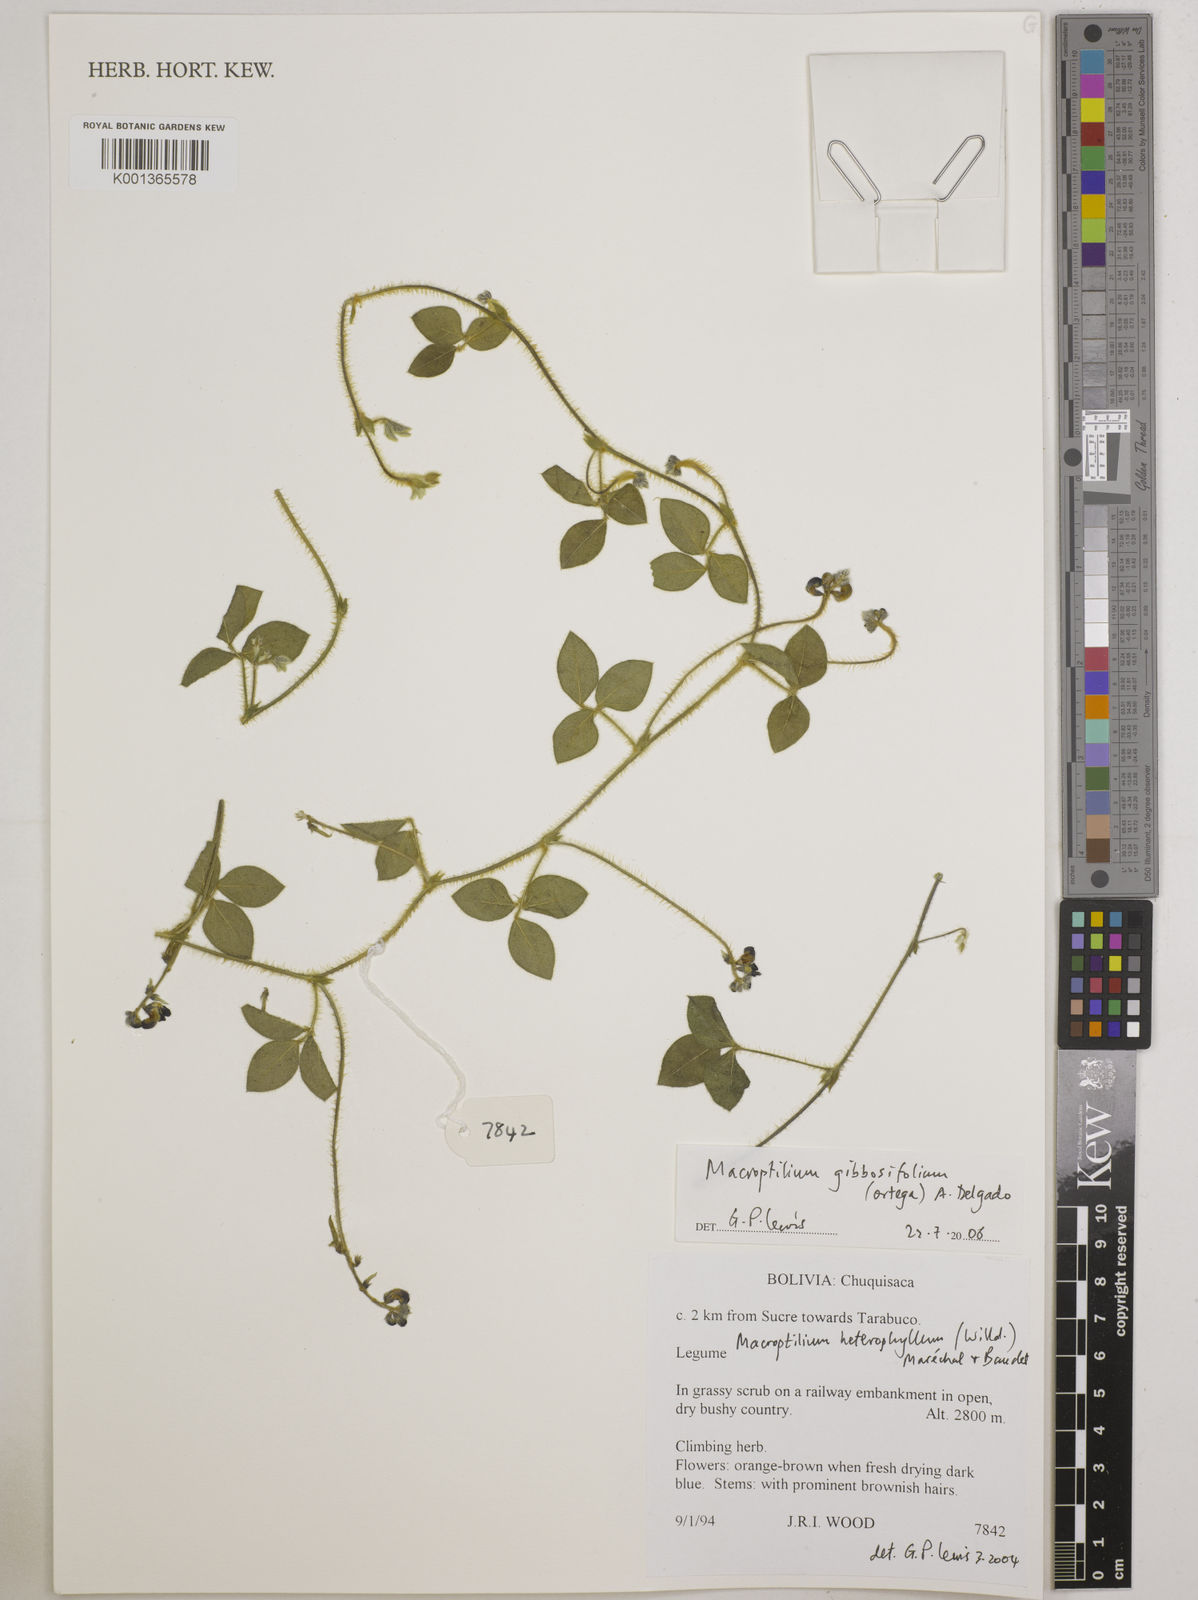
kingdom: Plantae
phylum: Tracheophyta
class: Magnoliopsida
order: Fabales
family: Fabaceae
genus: Macroptilium
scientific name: Macroptilium gibbosifolium
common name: Variableleaf bushbean
